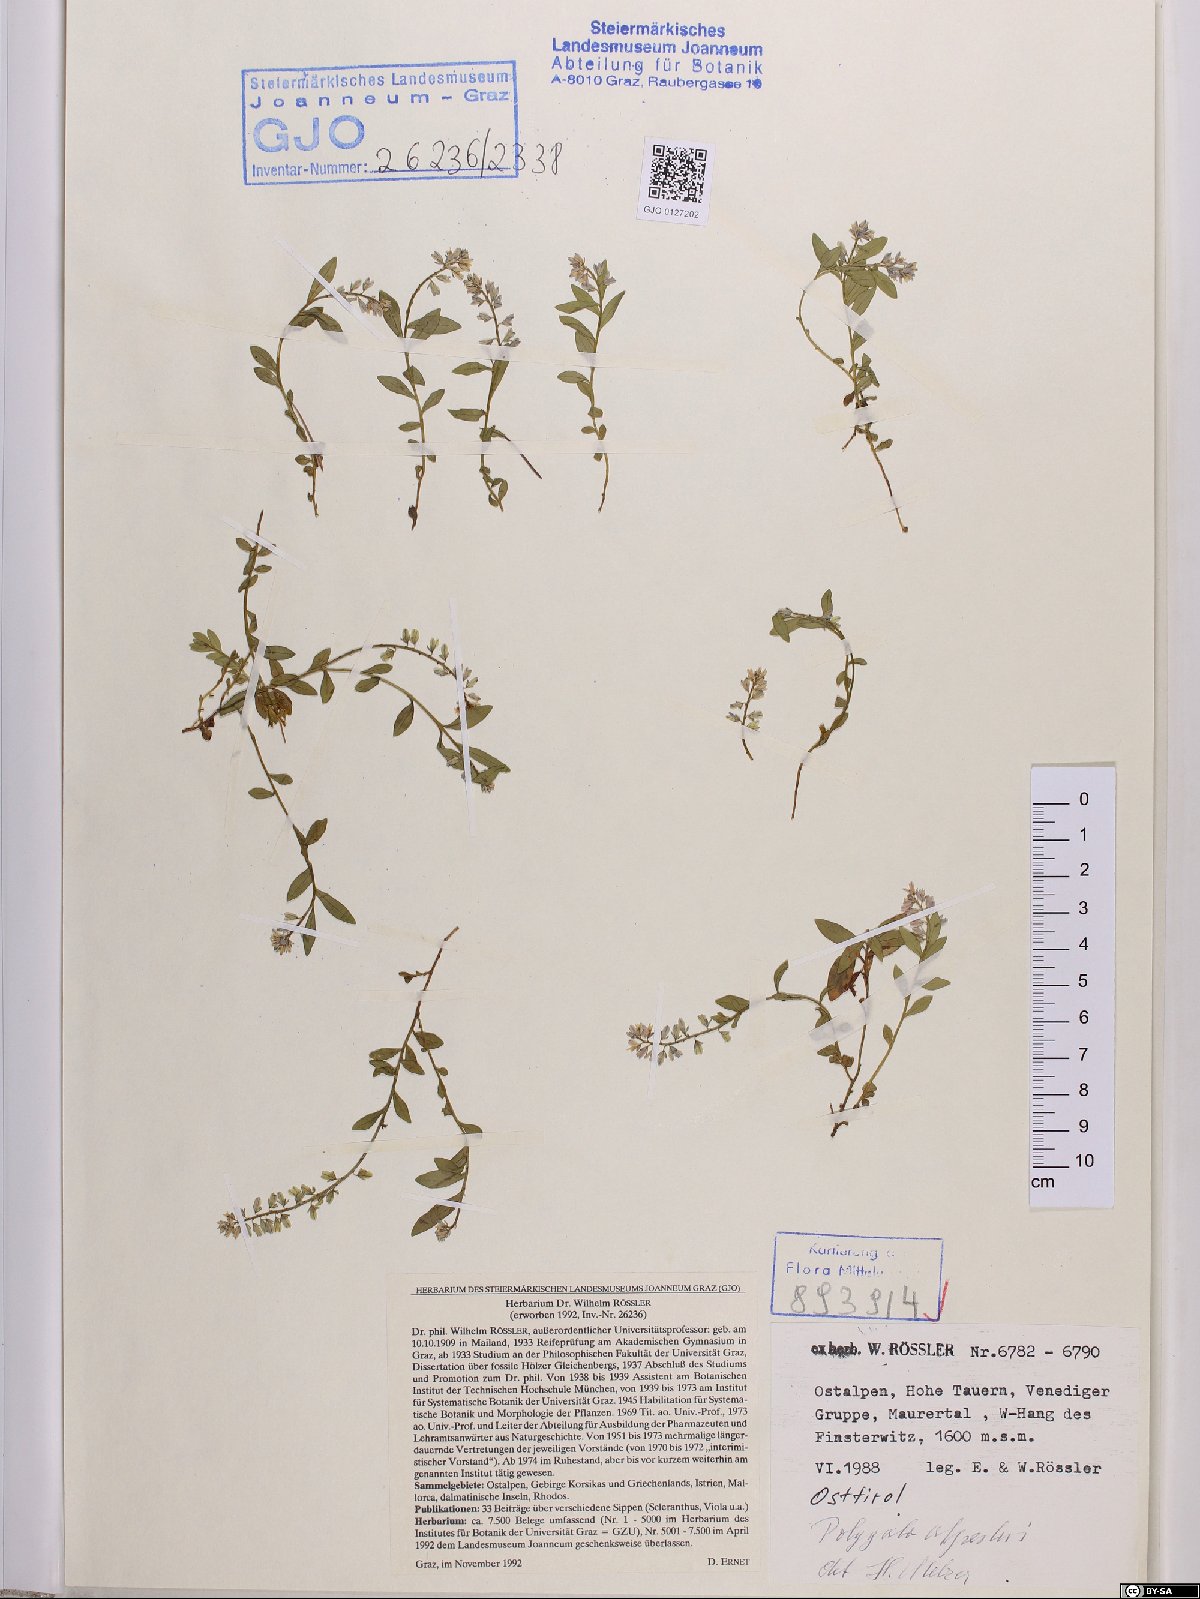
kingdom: Plantae
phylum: Tracheophyta
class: Magnoliopsida
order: Fabales
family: Polygalaceae
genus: Polygala
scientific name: Polygala alpestris
